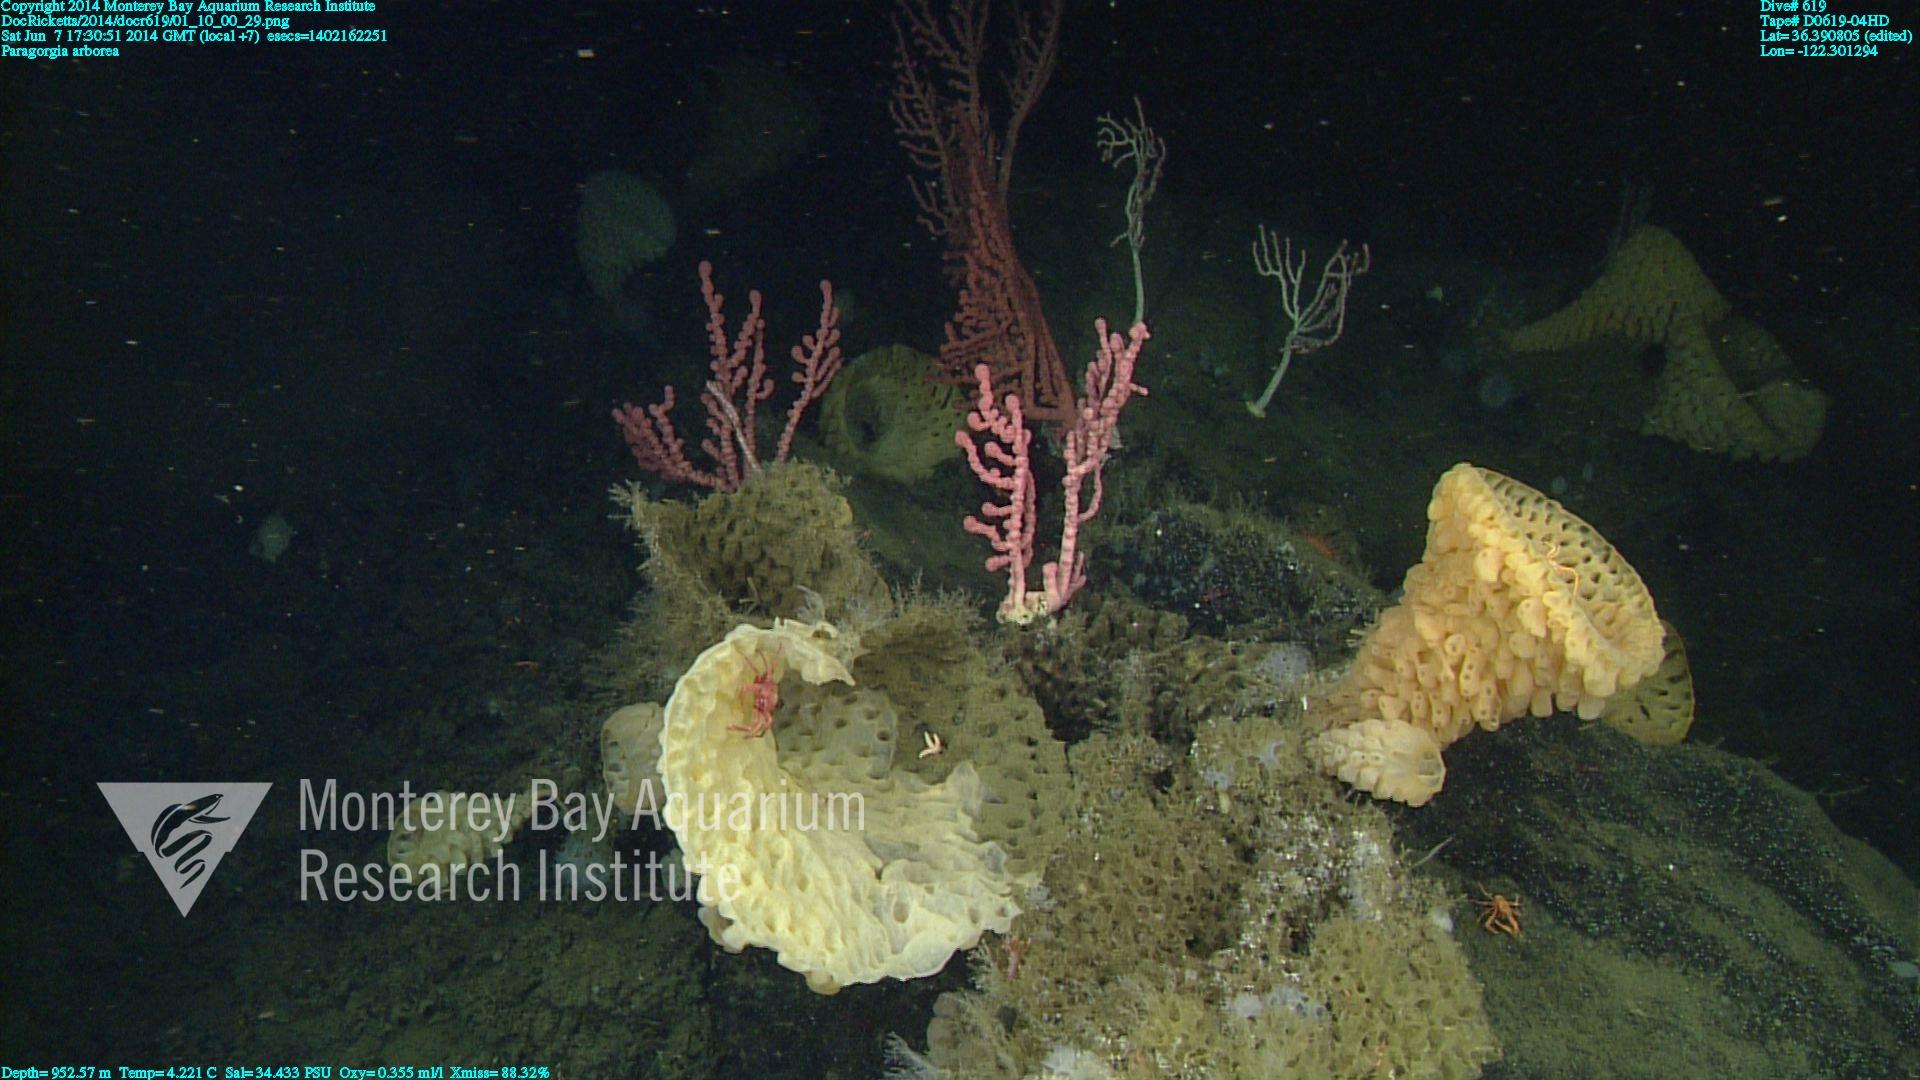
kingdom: Animalia
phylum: Cnidaria
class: Anthozoa
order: Scleralcyonacea
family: Coralliidae
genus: Paragorgia
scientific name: Paragorgia arborea
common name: Bubble gum coral
